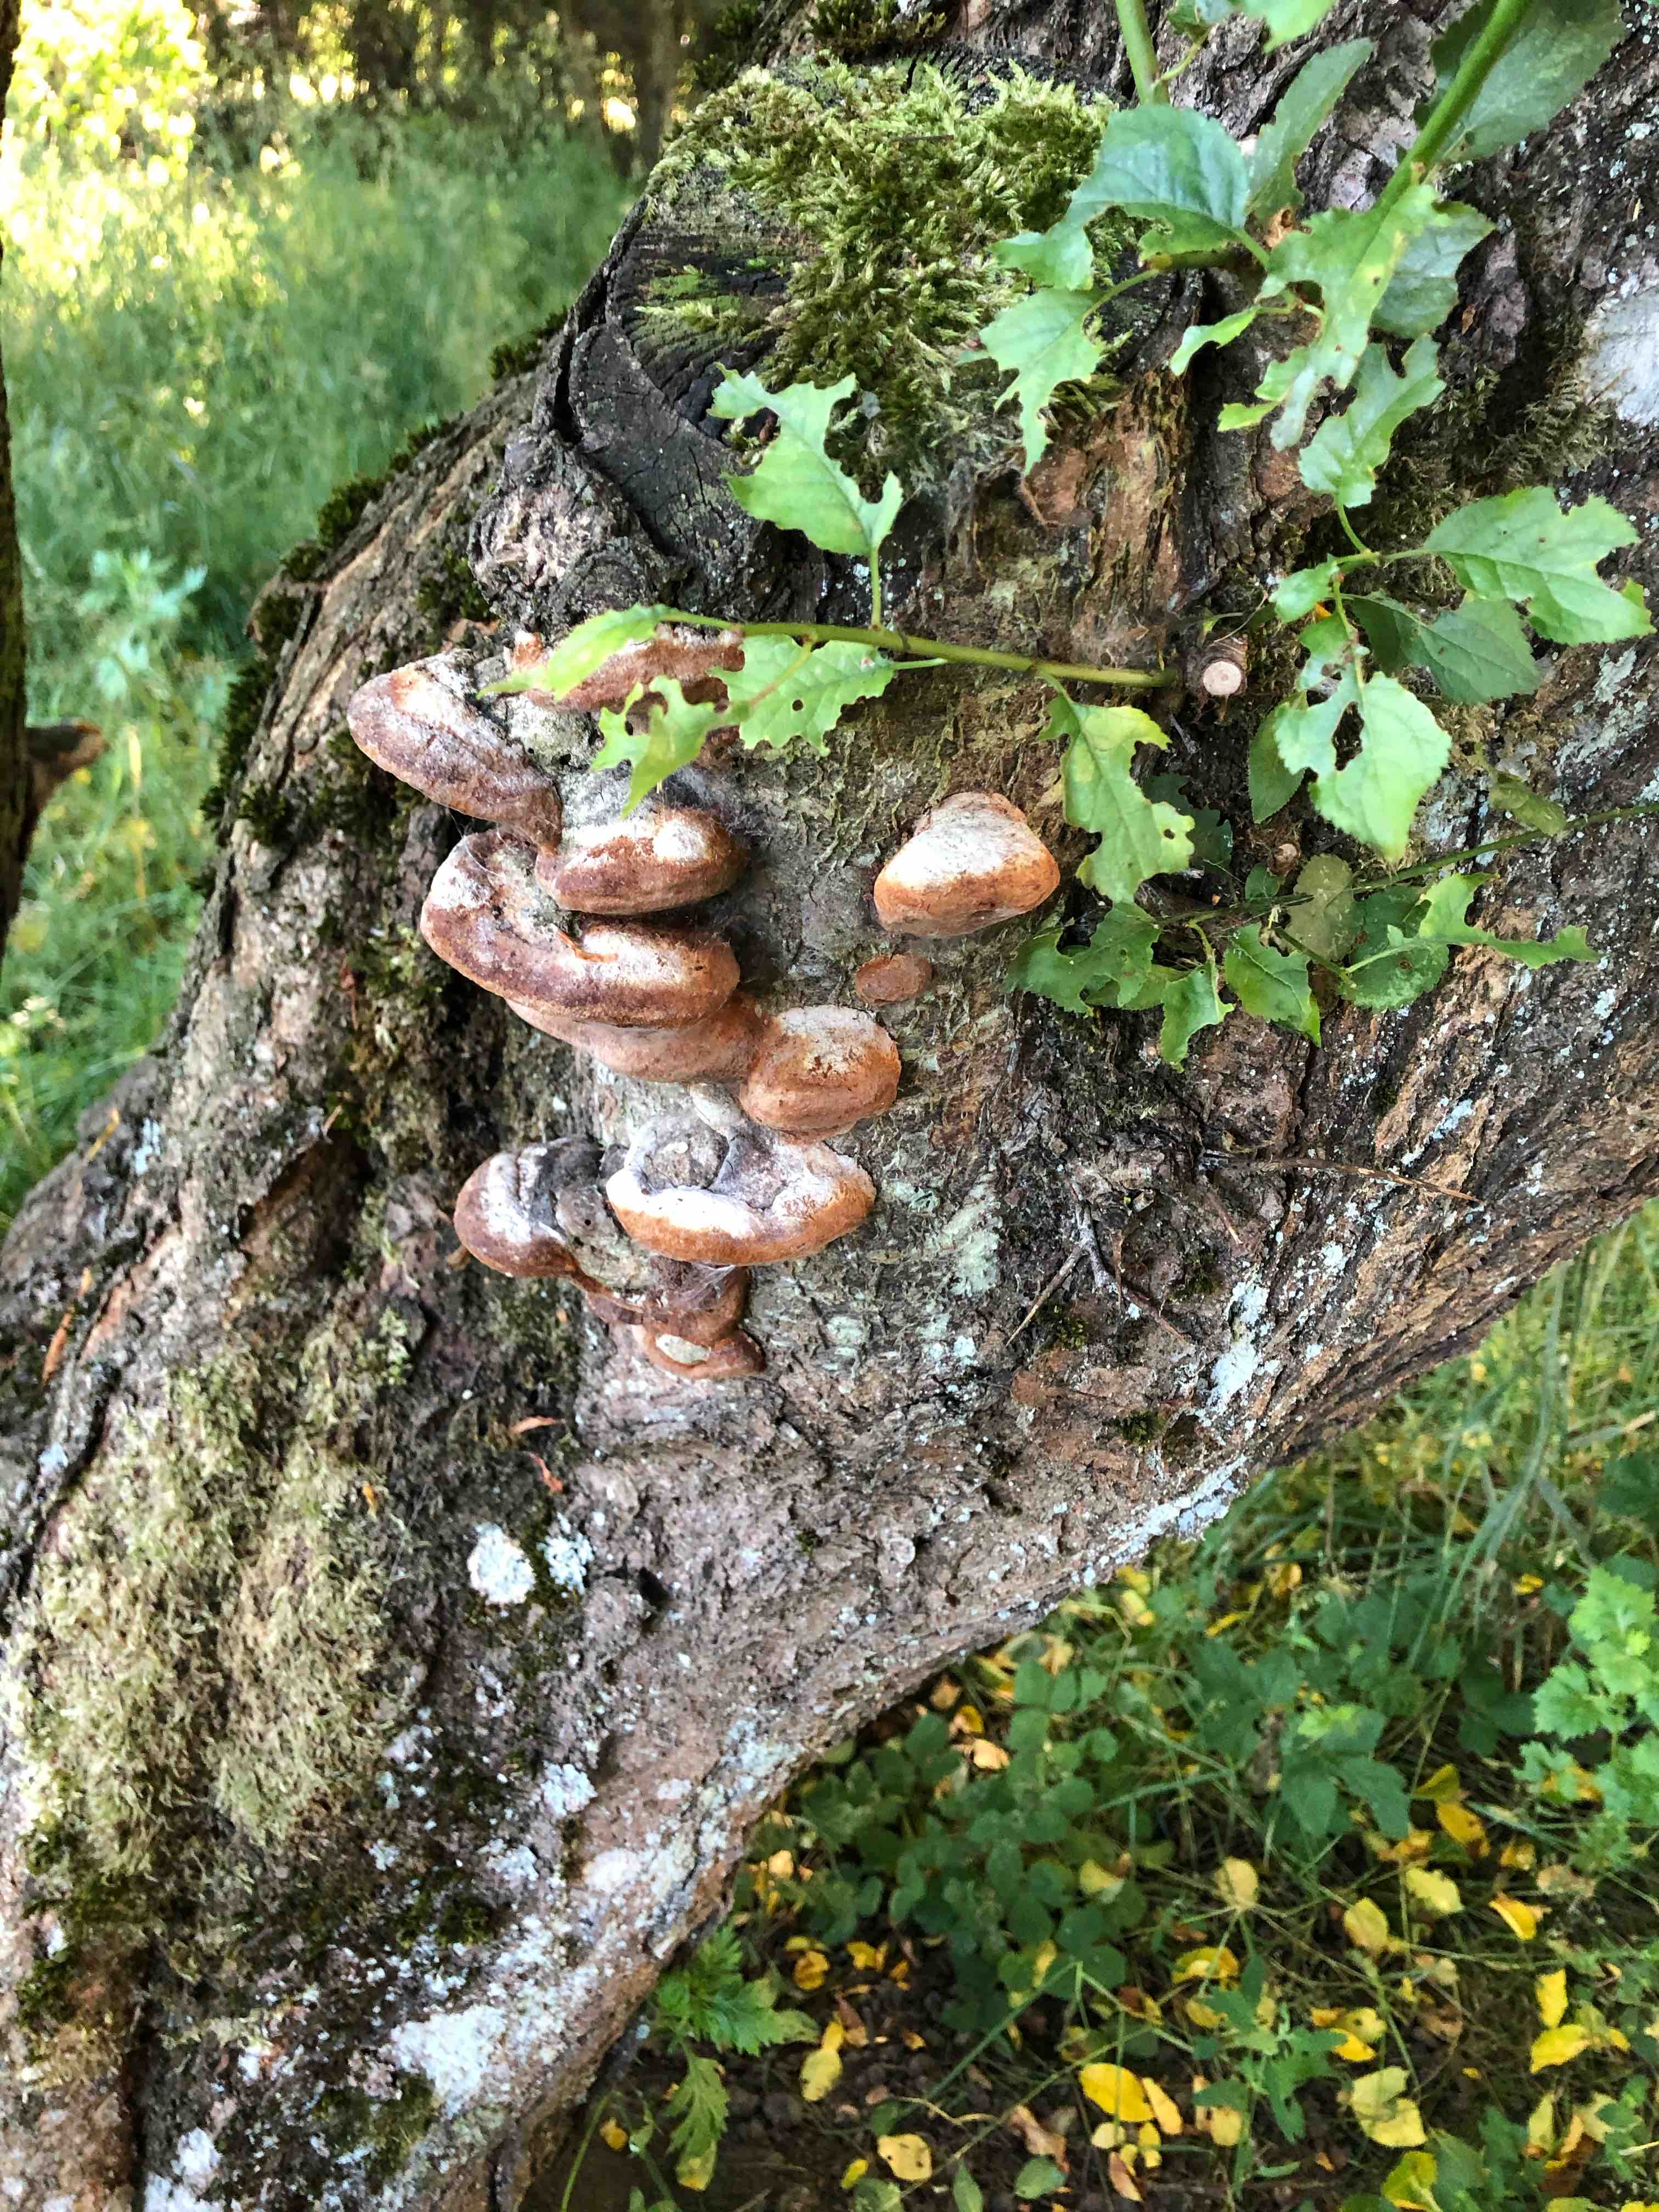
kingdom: Fungi
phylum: Basidiomycota
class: Agaricomycetes
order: Hymenochaetales
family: Hymenochaetaceae
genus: Phellinus
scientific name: Phellinus pomaceus
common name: blomme-ildporesvamp
